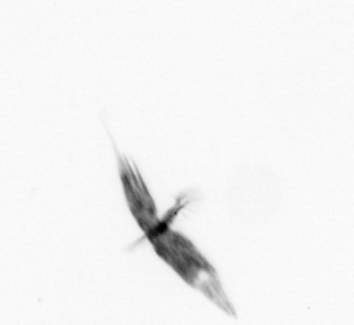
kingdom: Animalia
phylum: Arthropoda
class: Copepoda
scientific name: Copepoda
